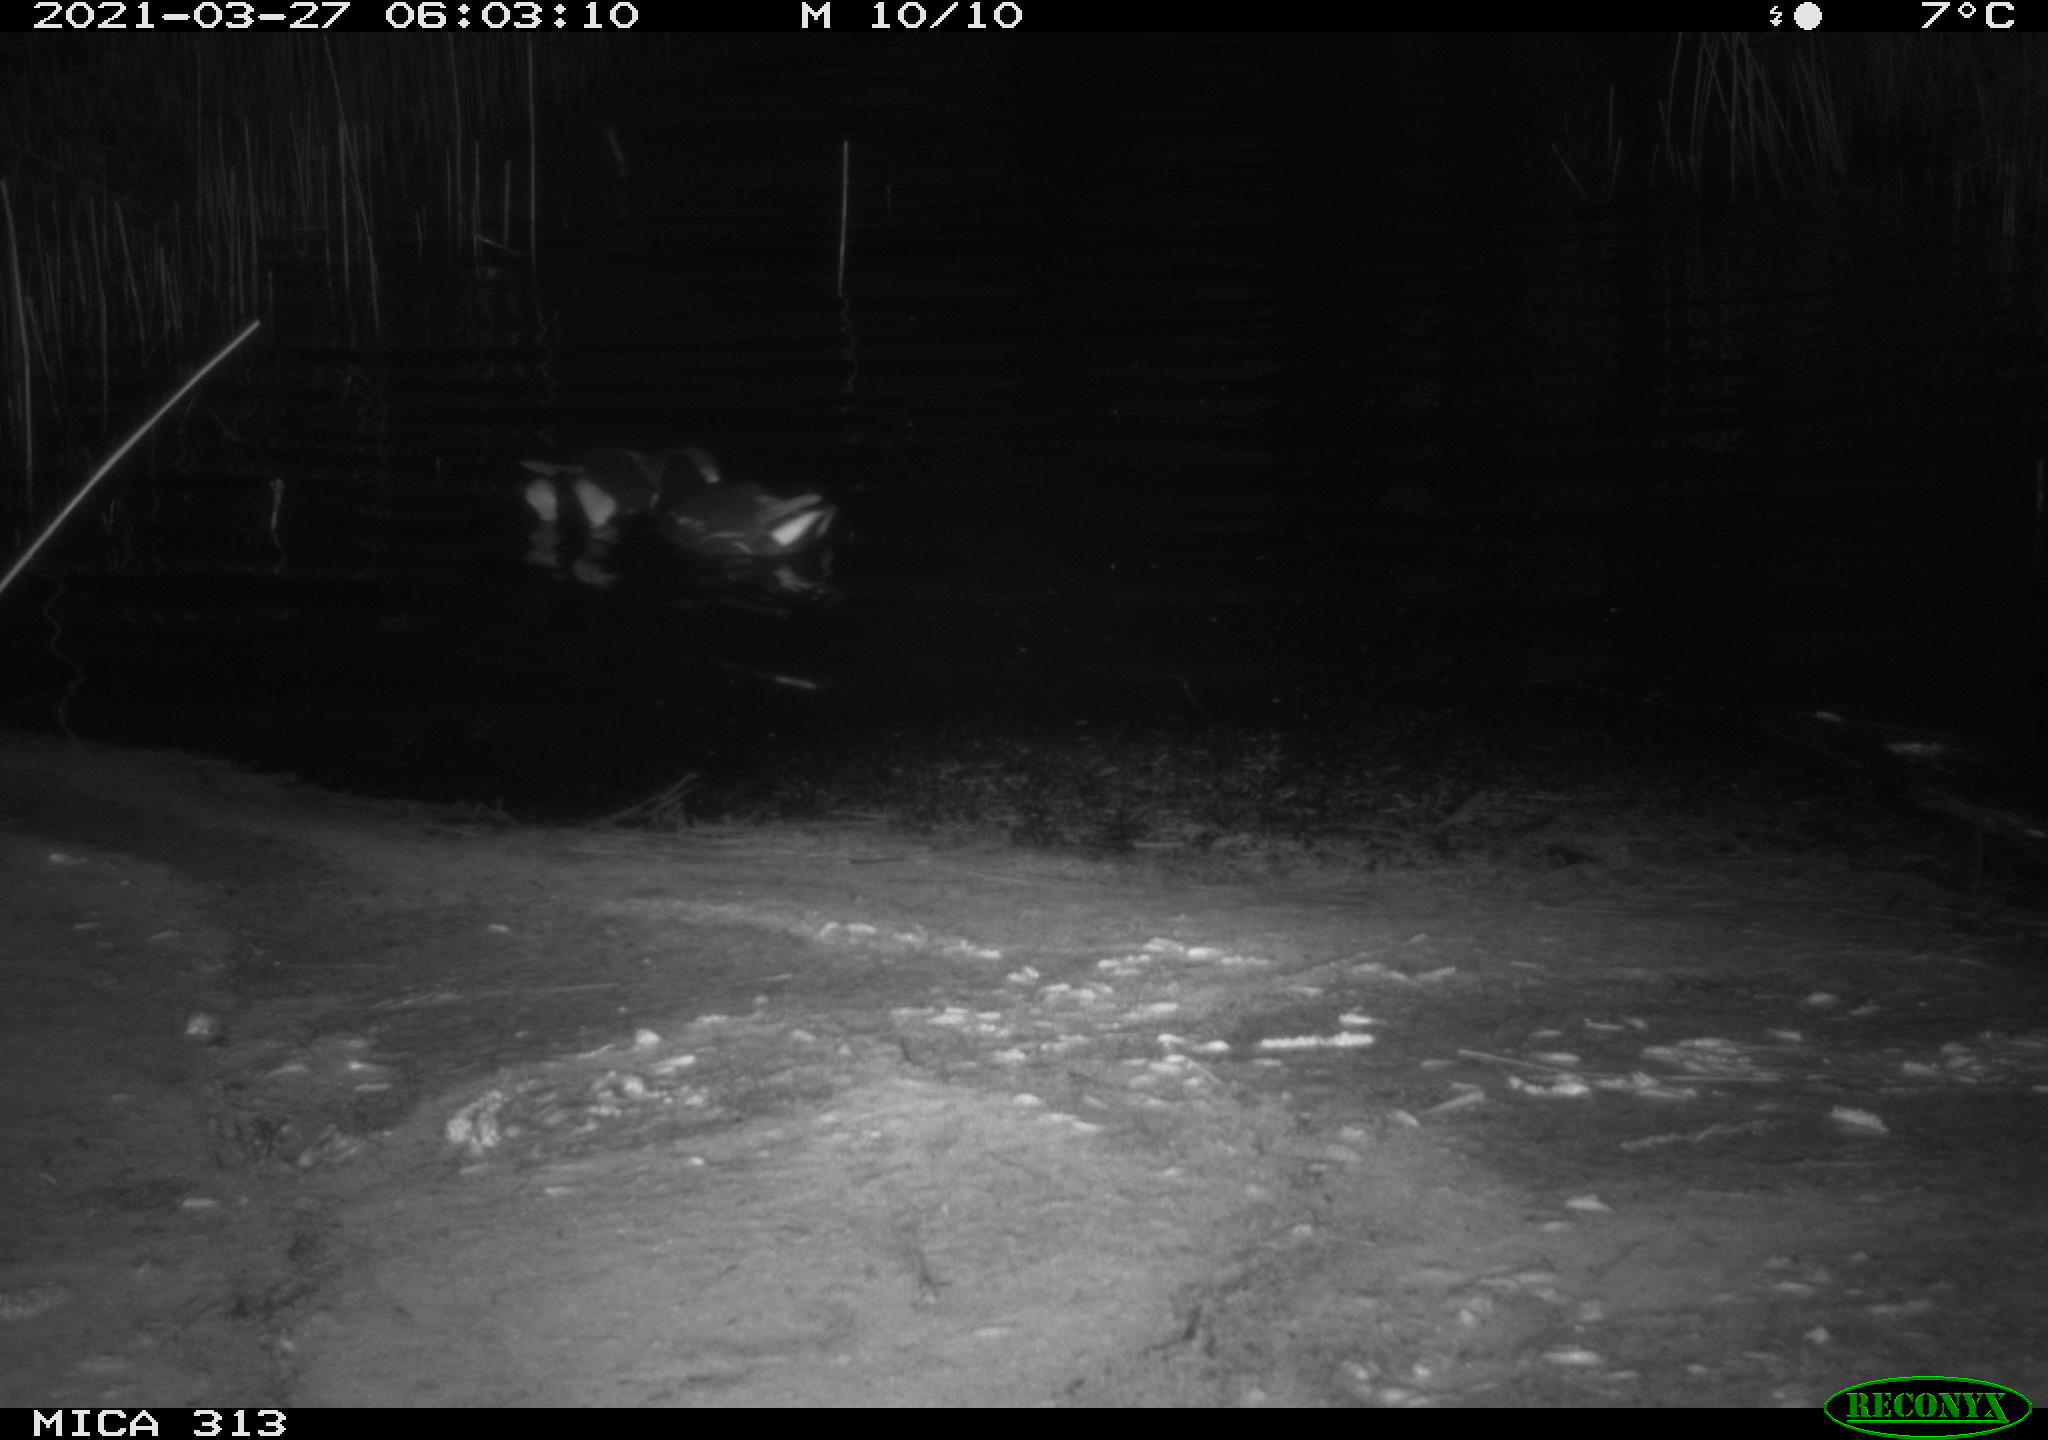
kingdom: Animalia
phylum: Chordata
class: Aves
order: Gruiformes
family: Rallidae
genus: Fulica
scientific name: Fulica atra
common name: Eurasian coot
